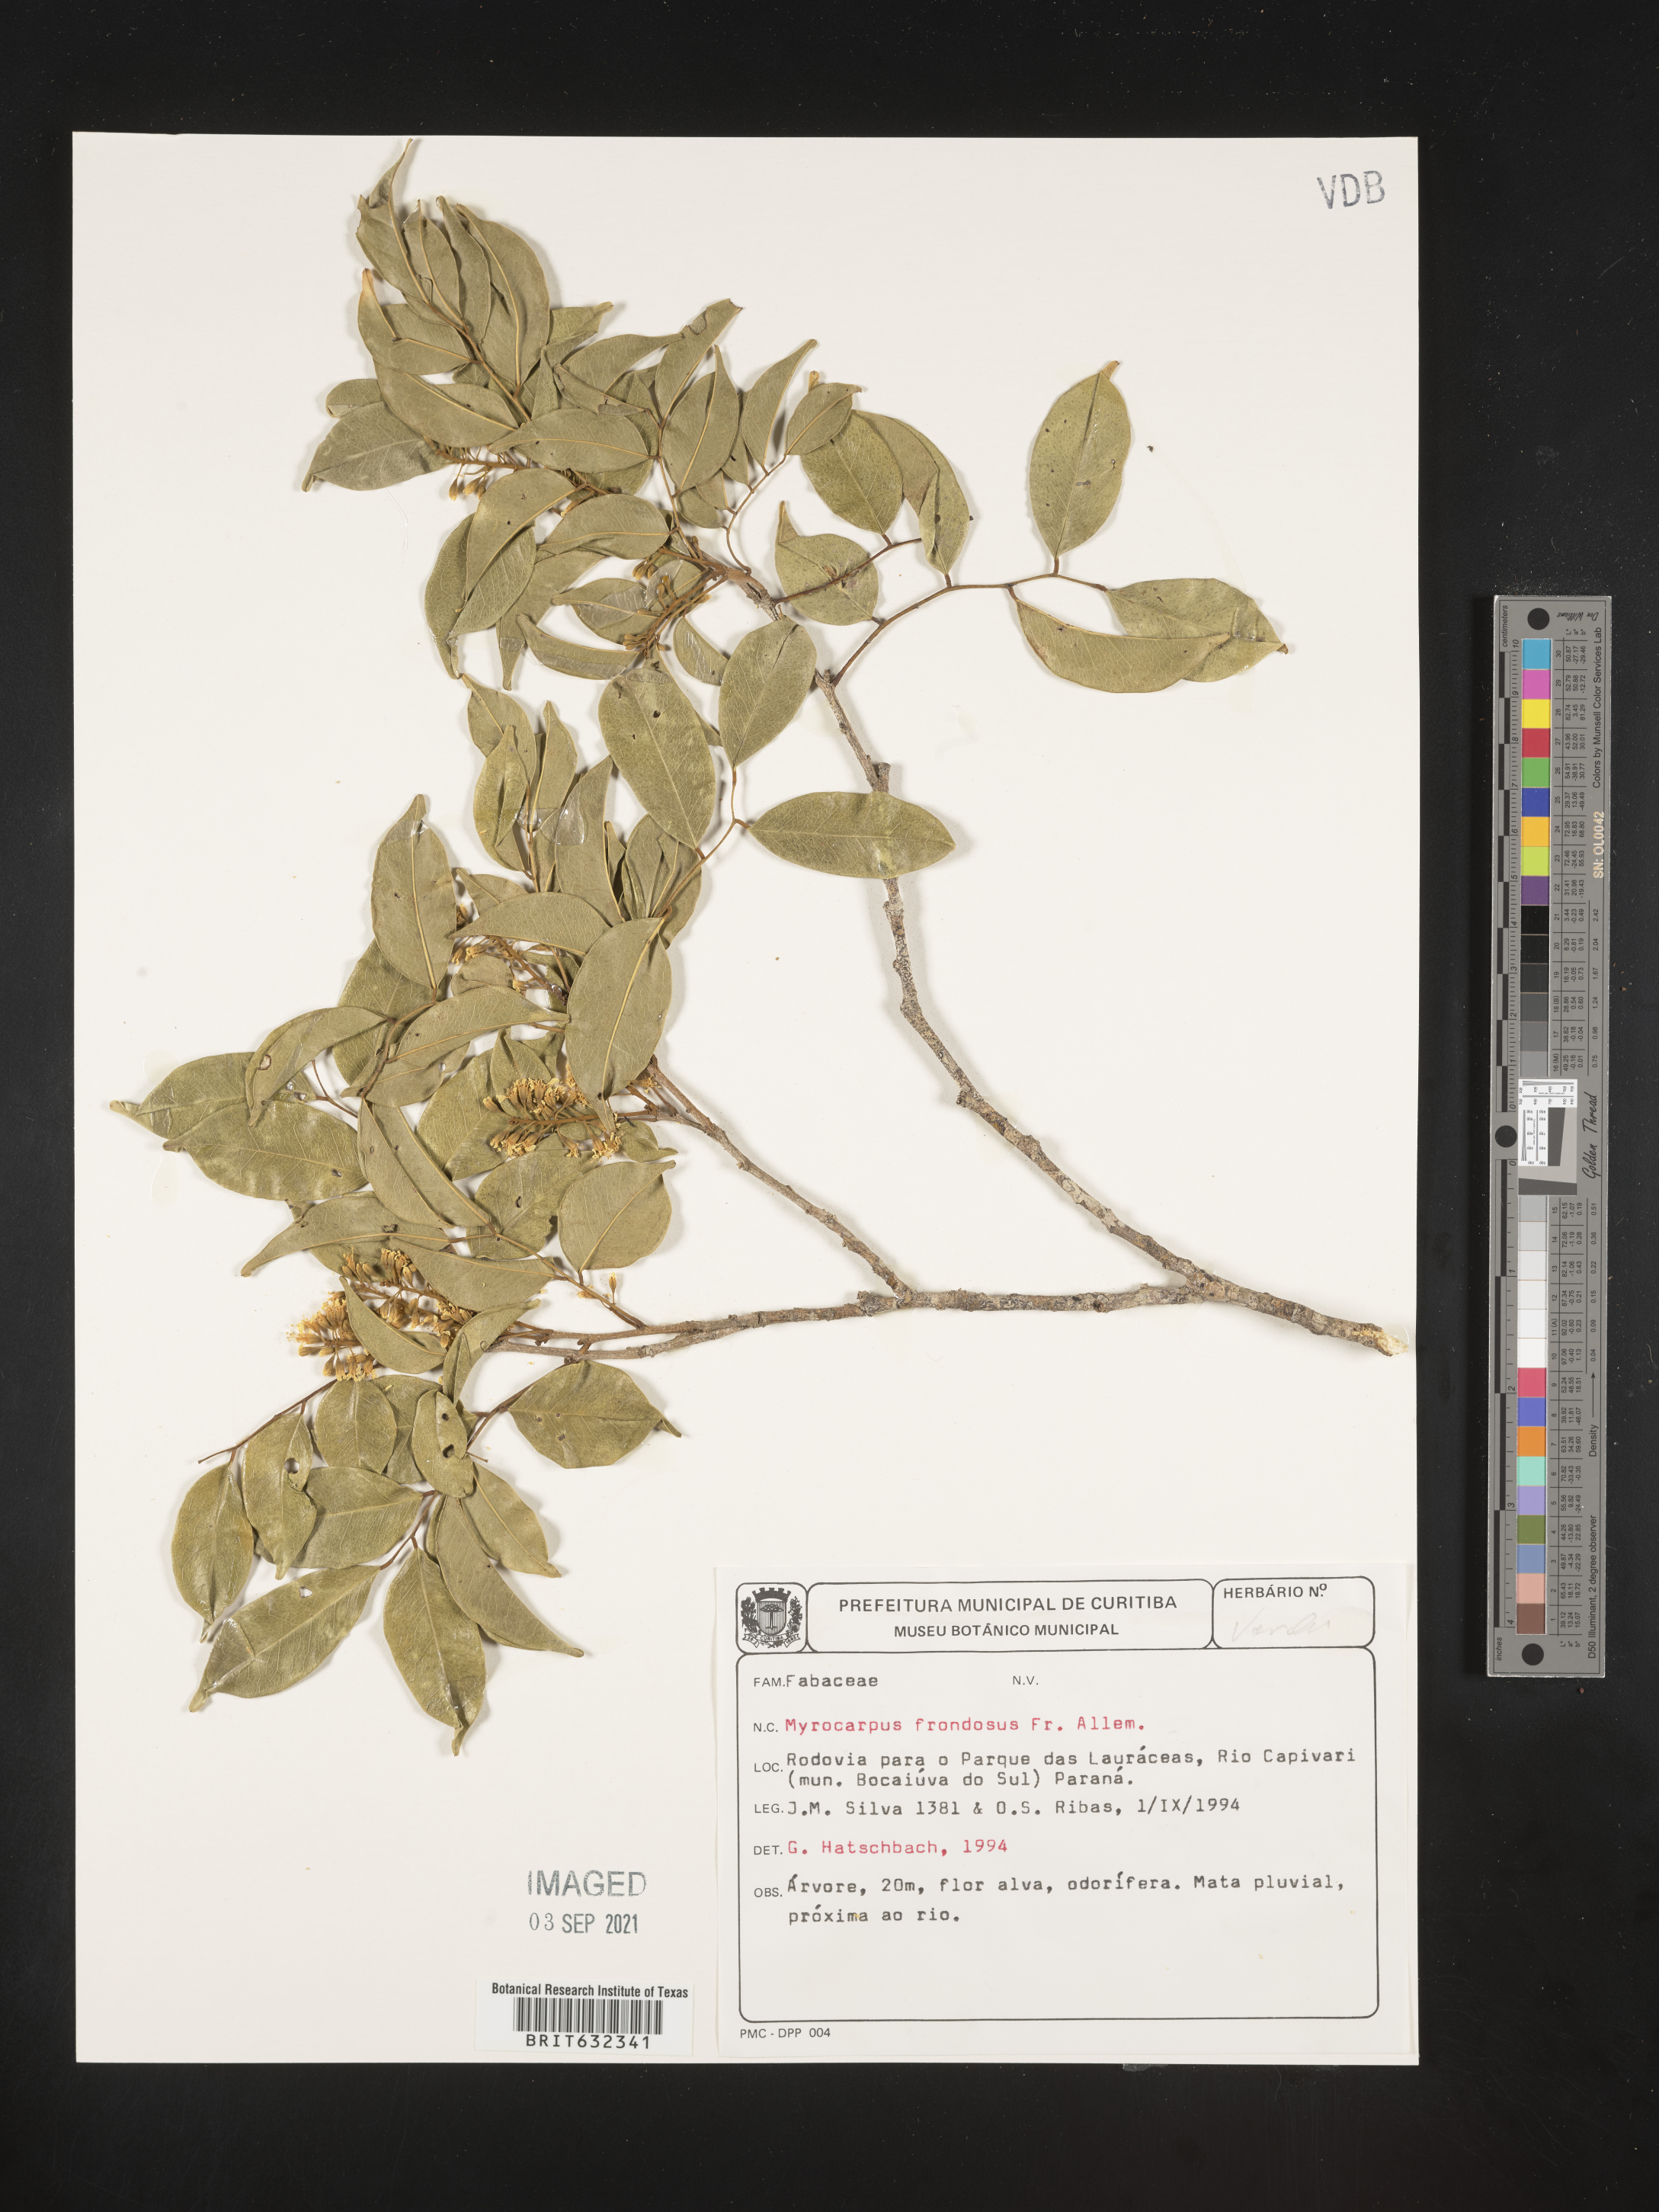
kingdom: Plantae
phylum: Tracheophyta
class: Magnoliopsida
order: Fabales
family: Fabaceae
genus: Myrocarpus
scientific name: Myrocarpus
